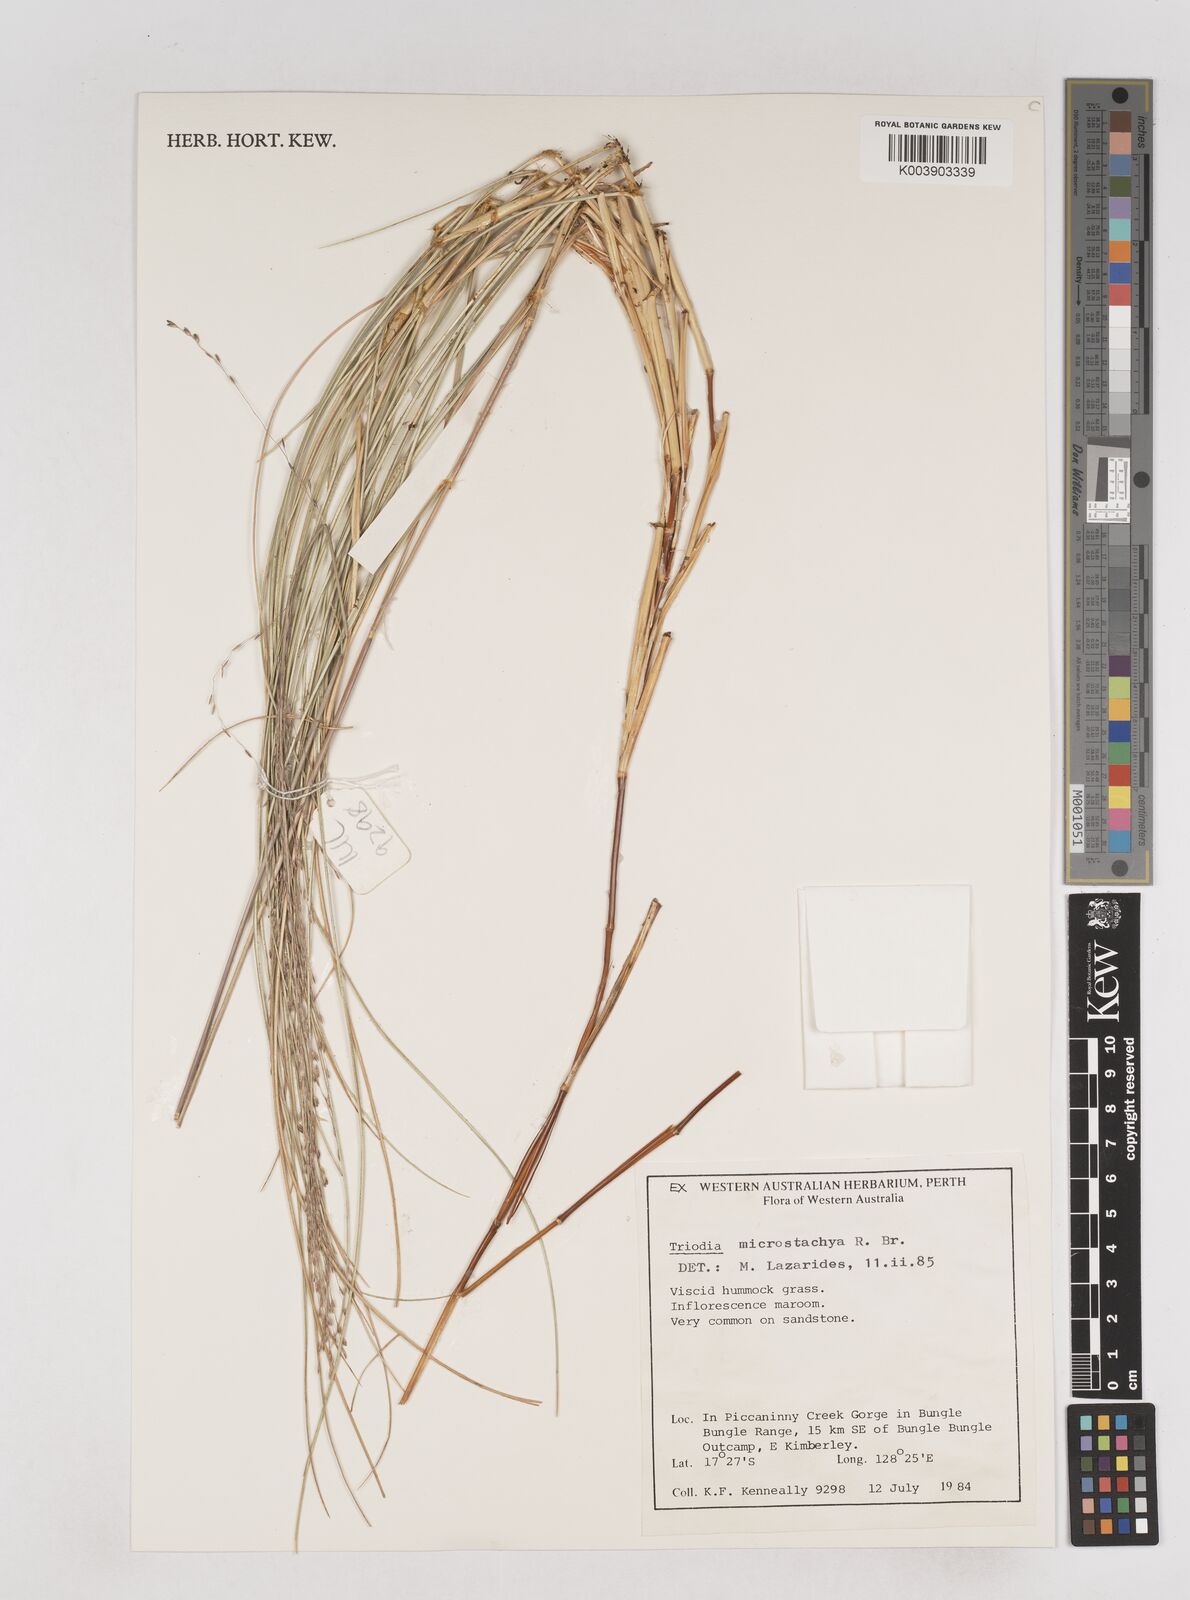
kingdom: Plantae
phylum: Tracheophyta
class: Liliopsida
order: Poales
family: Poaceae
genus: Triodia
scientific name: Triodia microstachya
